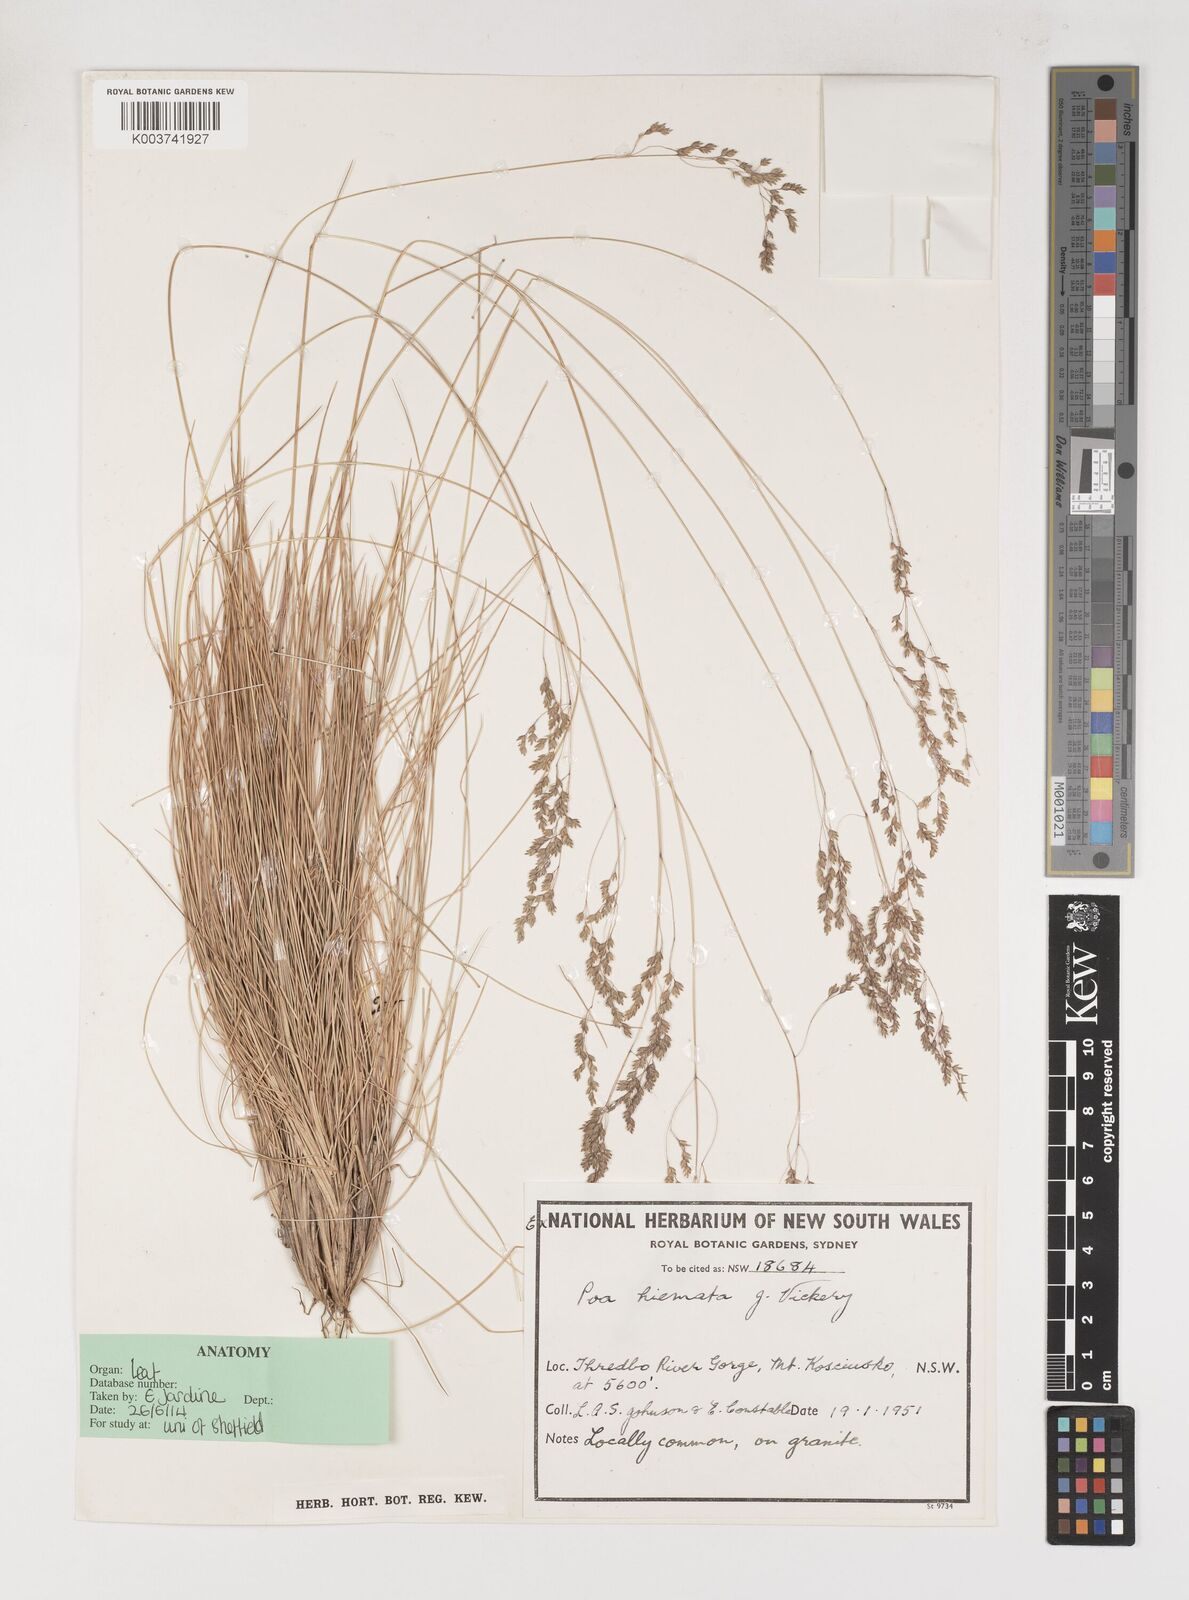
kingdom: Plantae
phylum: Tracheophyta
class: Liliopsida
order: Poales
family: Poaceae
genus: Poa
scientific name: Poa hiemata
